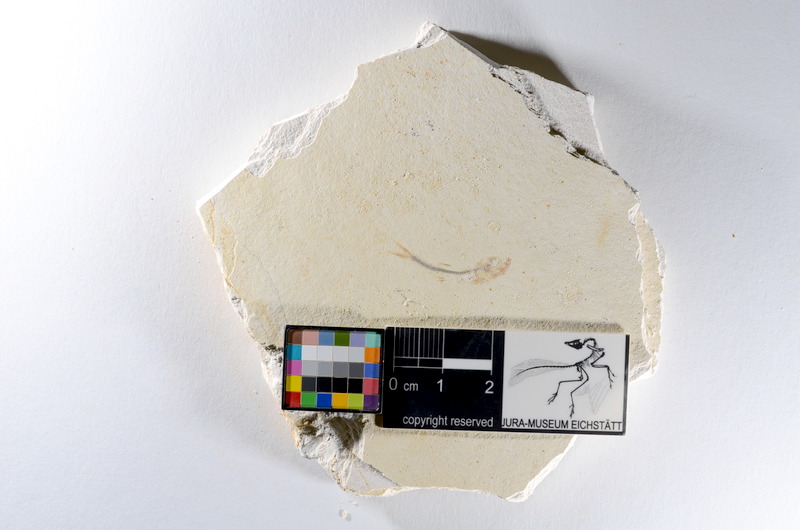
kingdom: Animalia
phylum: Chordata
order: Salmoniformes
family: Orthogonikleithridae
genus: Orthogonikleithrus
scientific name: Orthogonikleithrus hoelli
